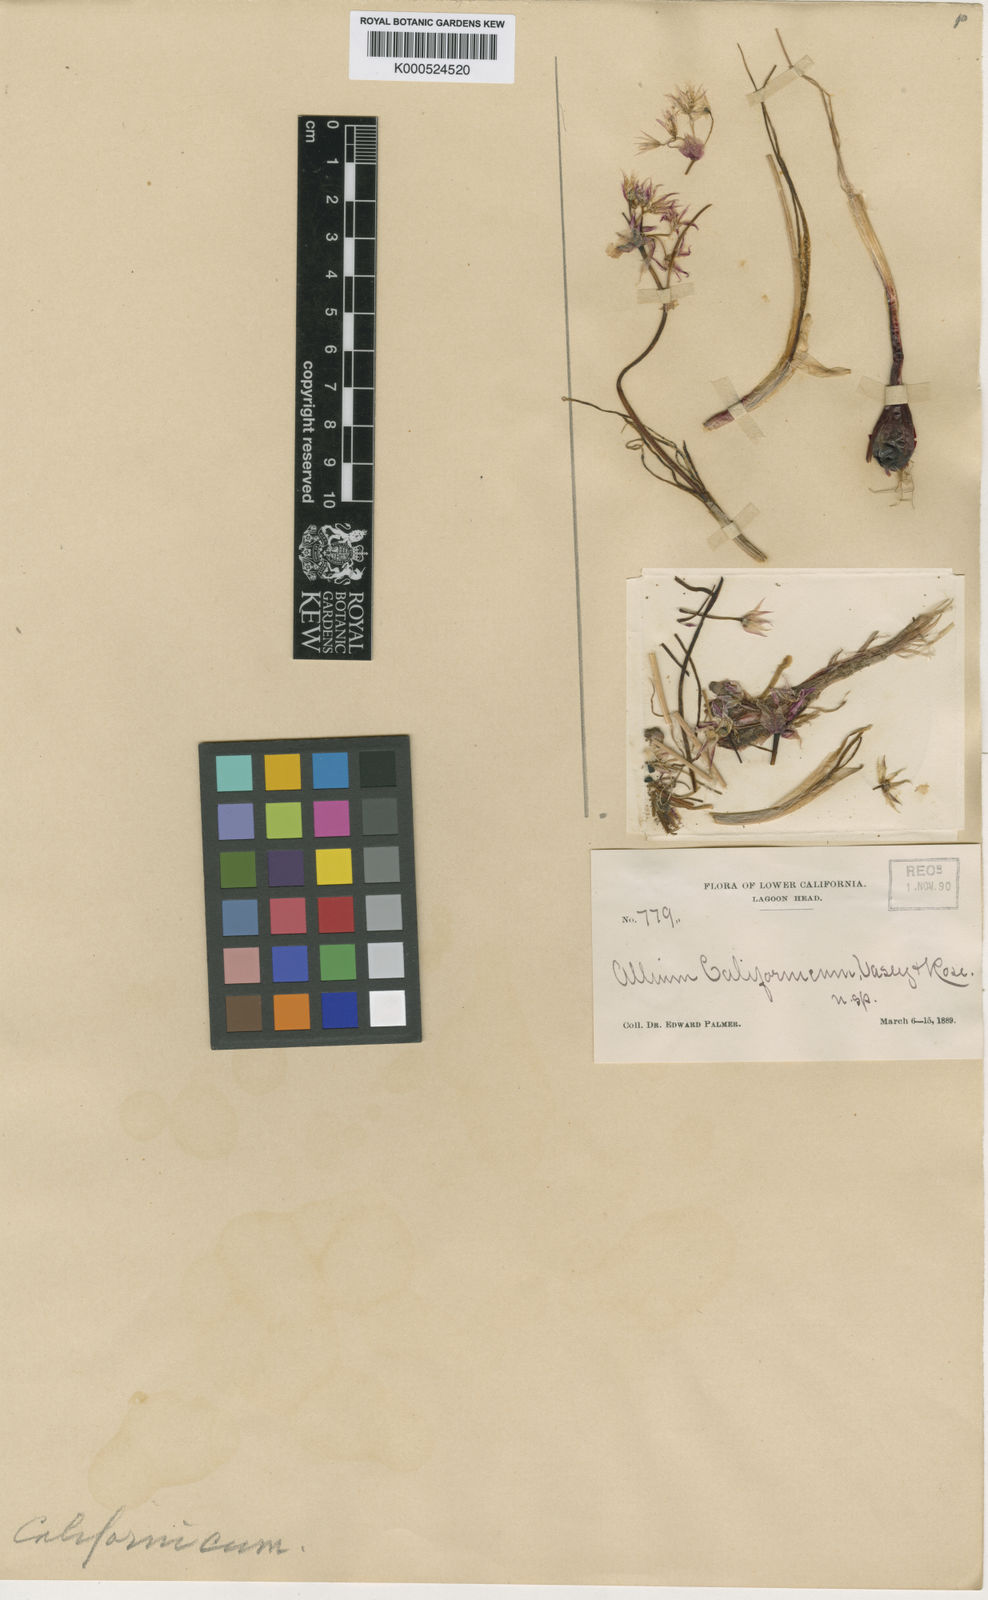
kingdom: Plantae
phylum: Tracheophyta
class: Liliopsida
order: Asparagales
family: Amaryllidaceae
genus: Allium
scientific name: Allium haematochiton
